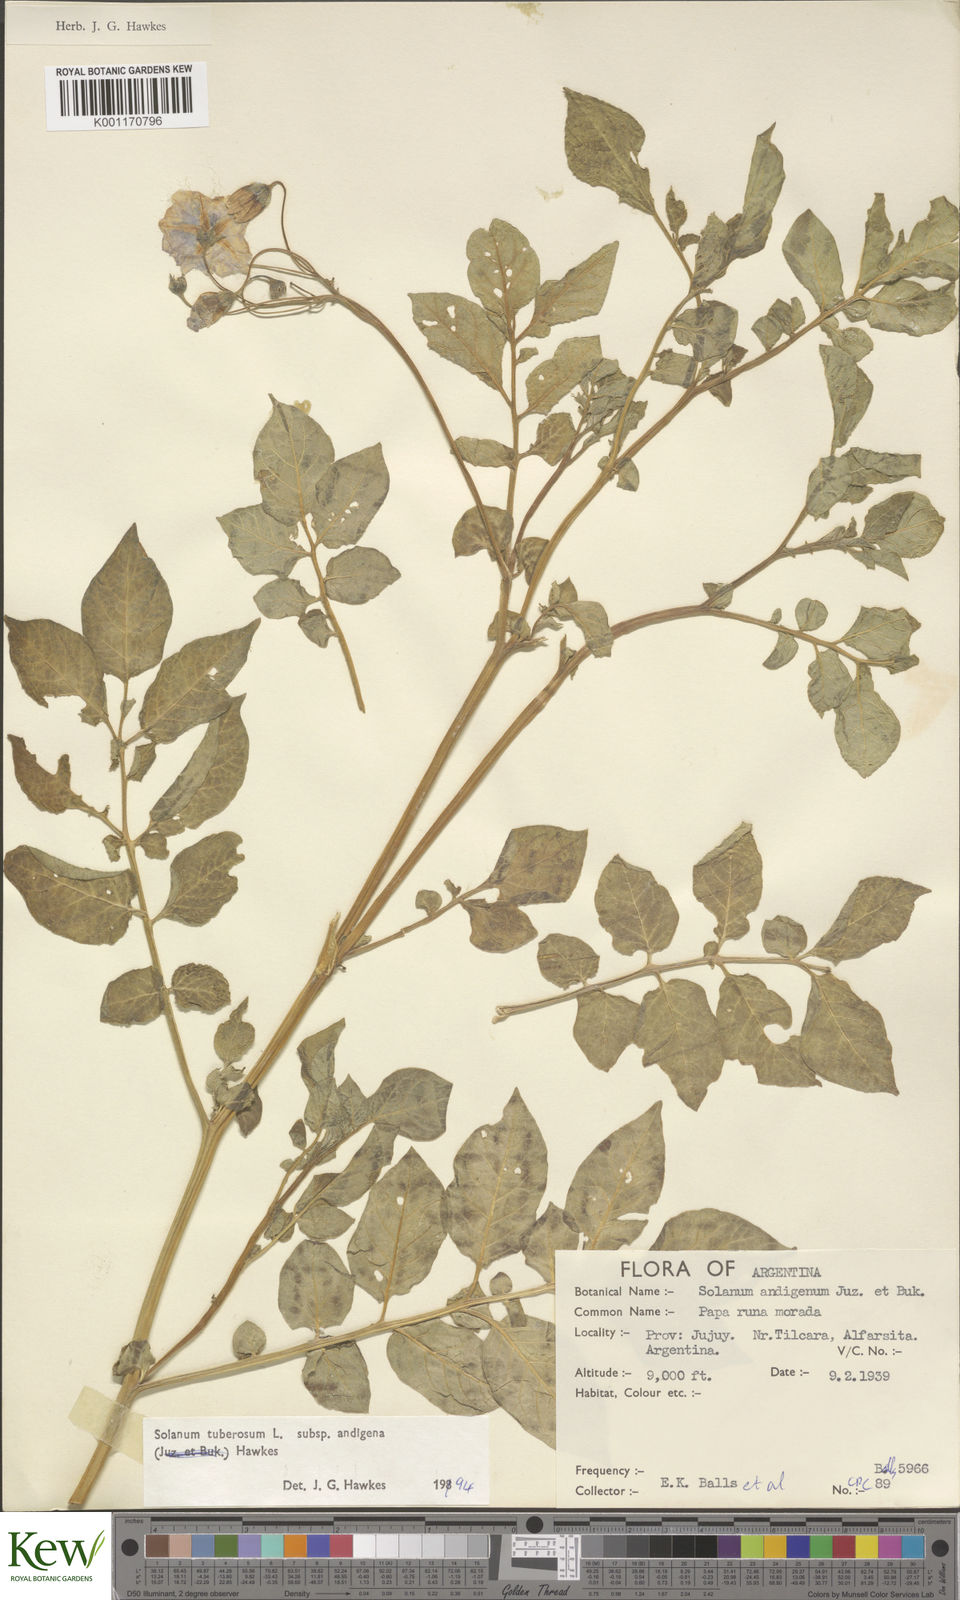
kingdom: Plantae
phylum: Tracheophyta
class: Magnoliopsida
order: Solanales
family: Solanaceae
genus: Solanum
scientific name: Solanum tuberosum
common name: Potato
